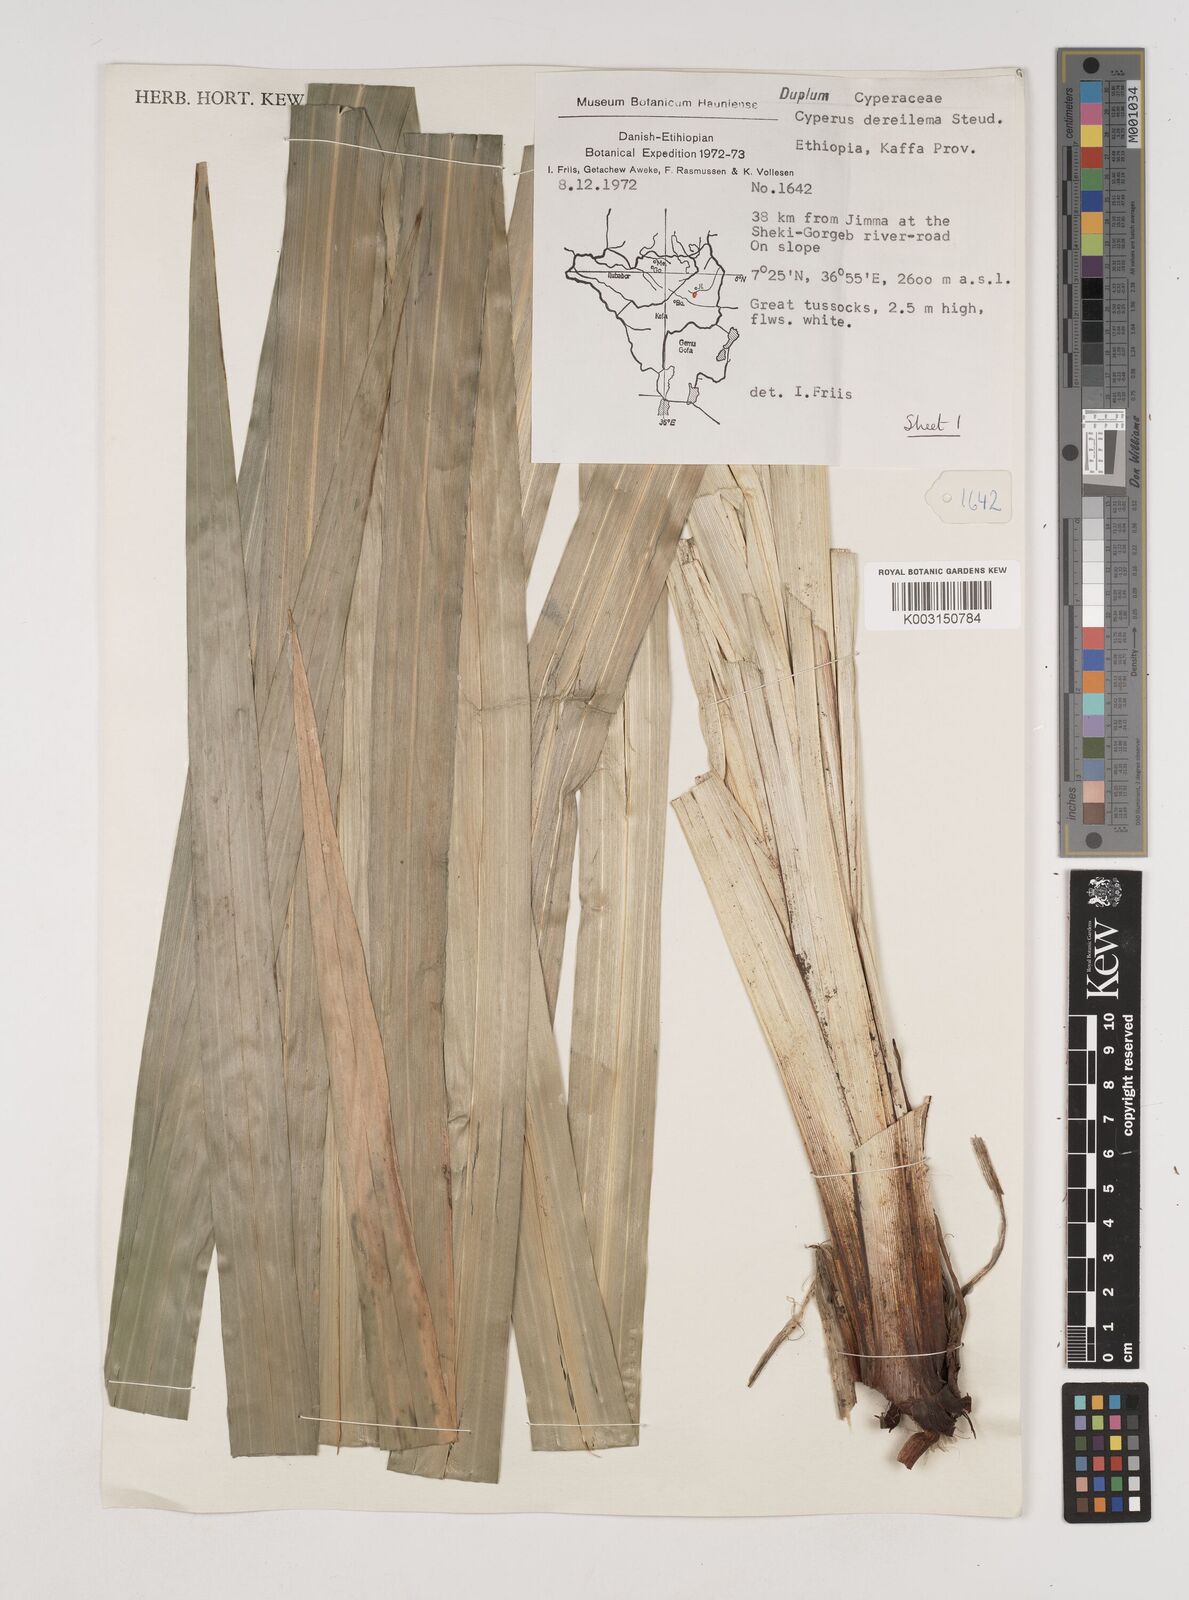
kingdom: Plantae
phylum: Tracheophyta
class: Liliopsida
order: Poales
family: Cyperaceae
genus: Cyperus
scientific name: Cyperus derreilema
